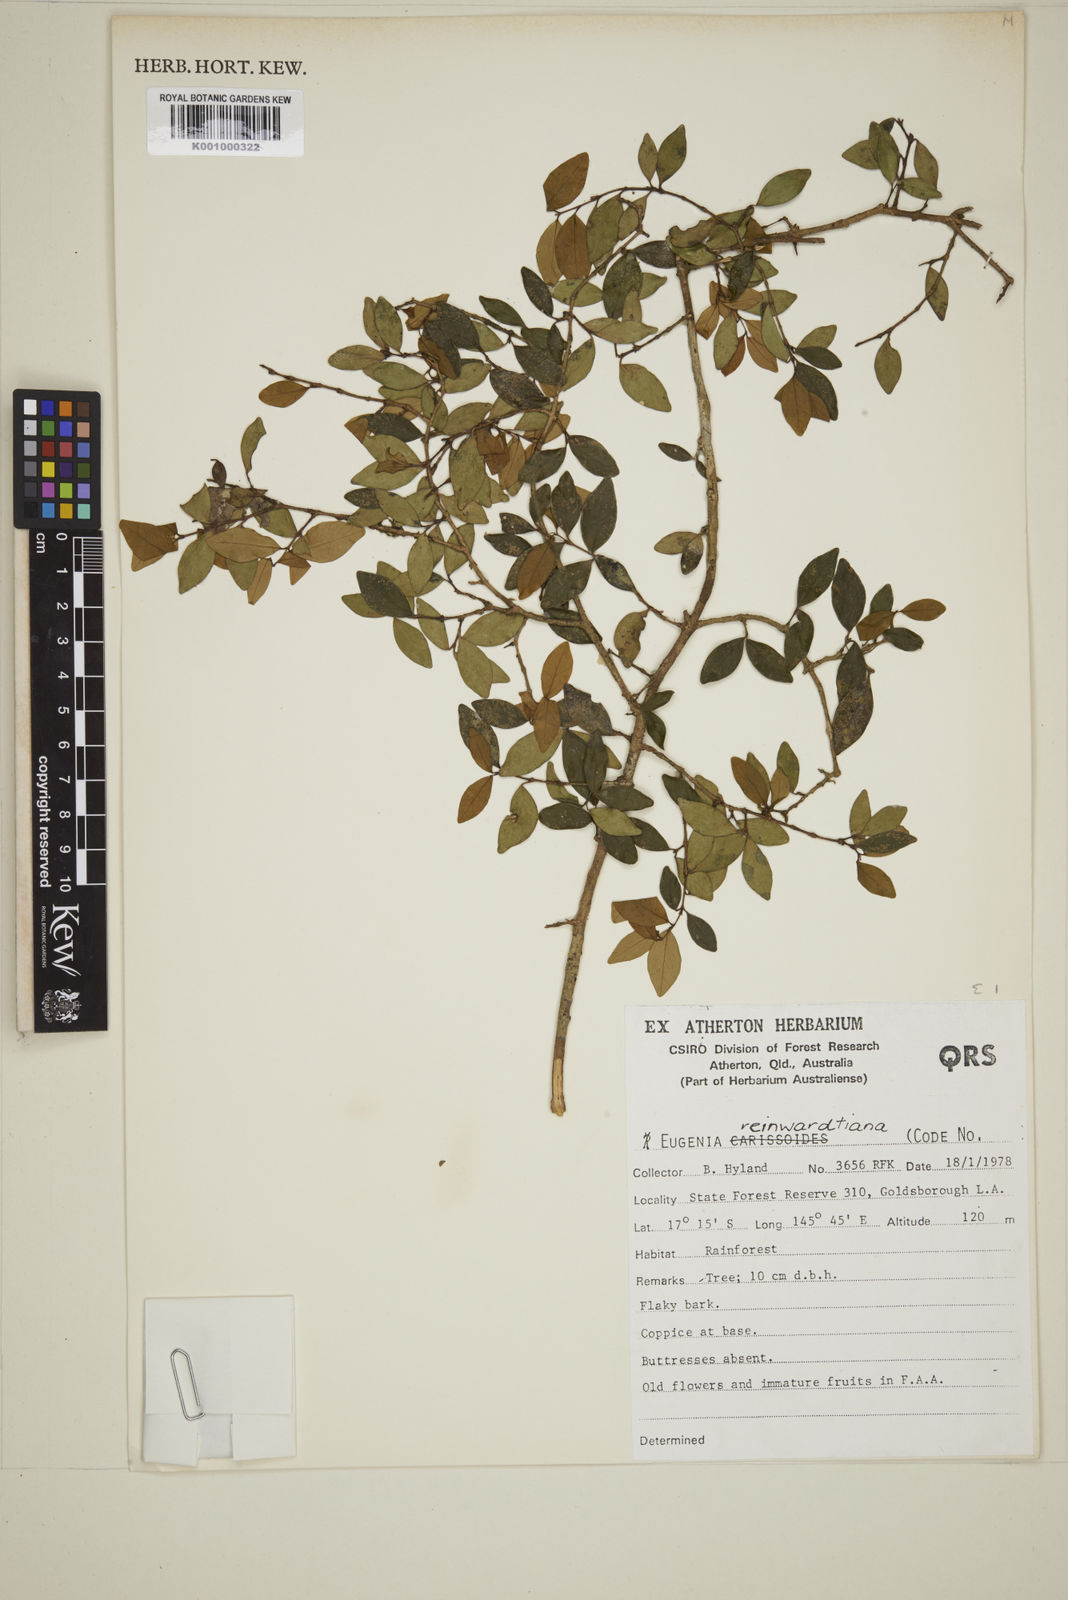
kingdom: Plantae
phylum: Tracheophyta
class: Magnoliopsida
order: Myrtales
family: Myrtaceae
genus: Eugenia
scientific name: Eugenia reinwardtiana
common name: Cedar bay-cherry
